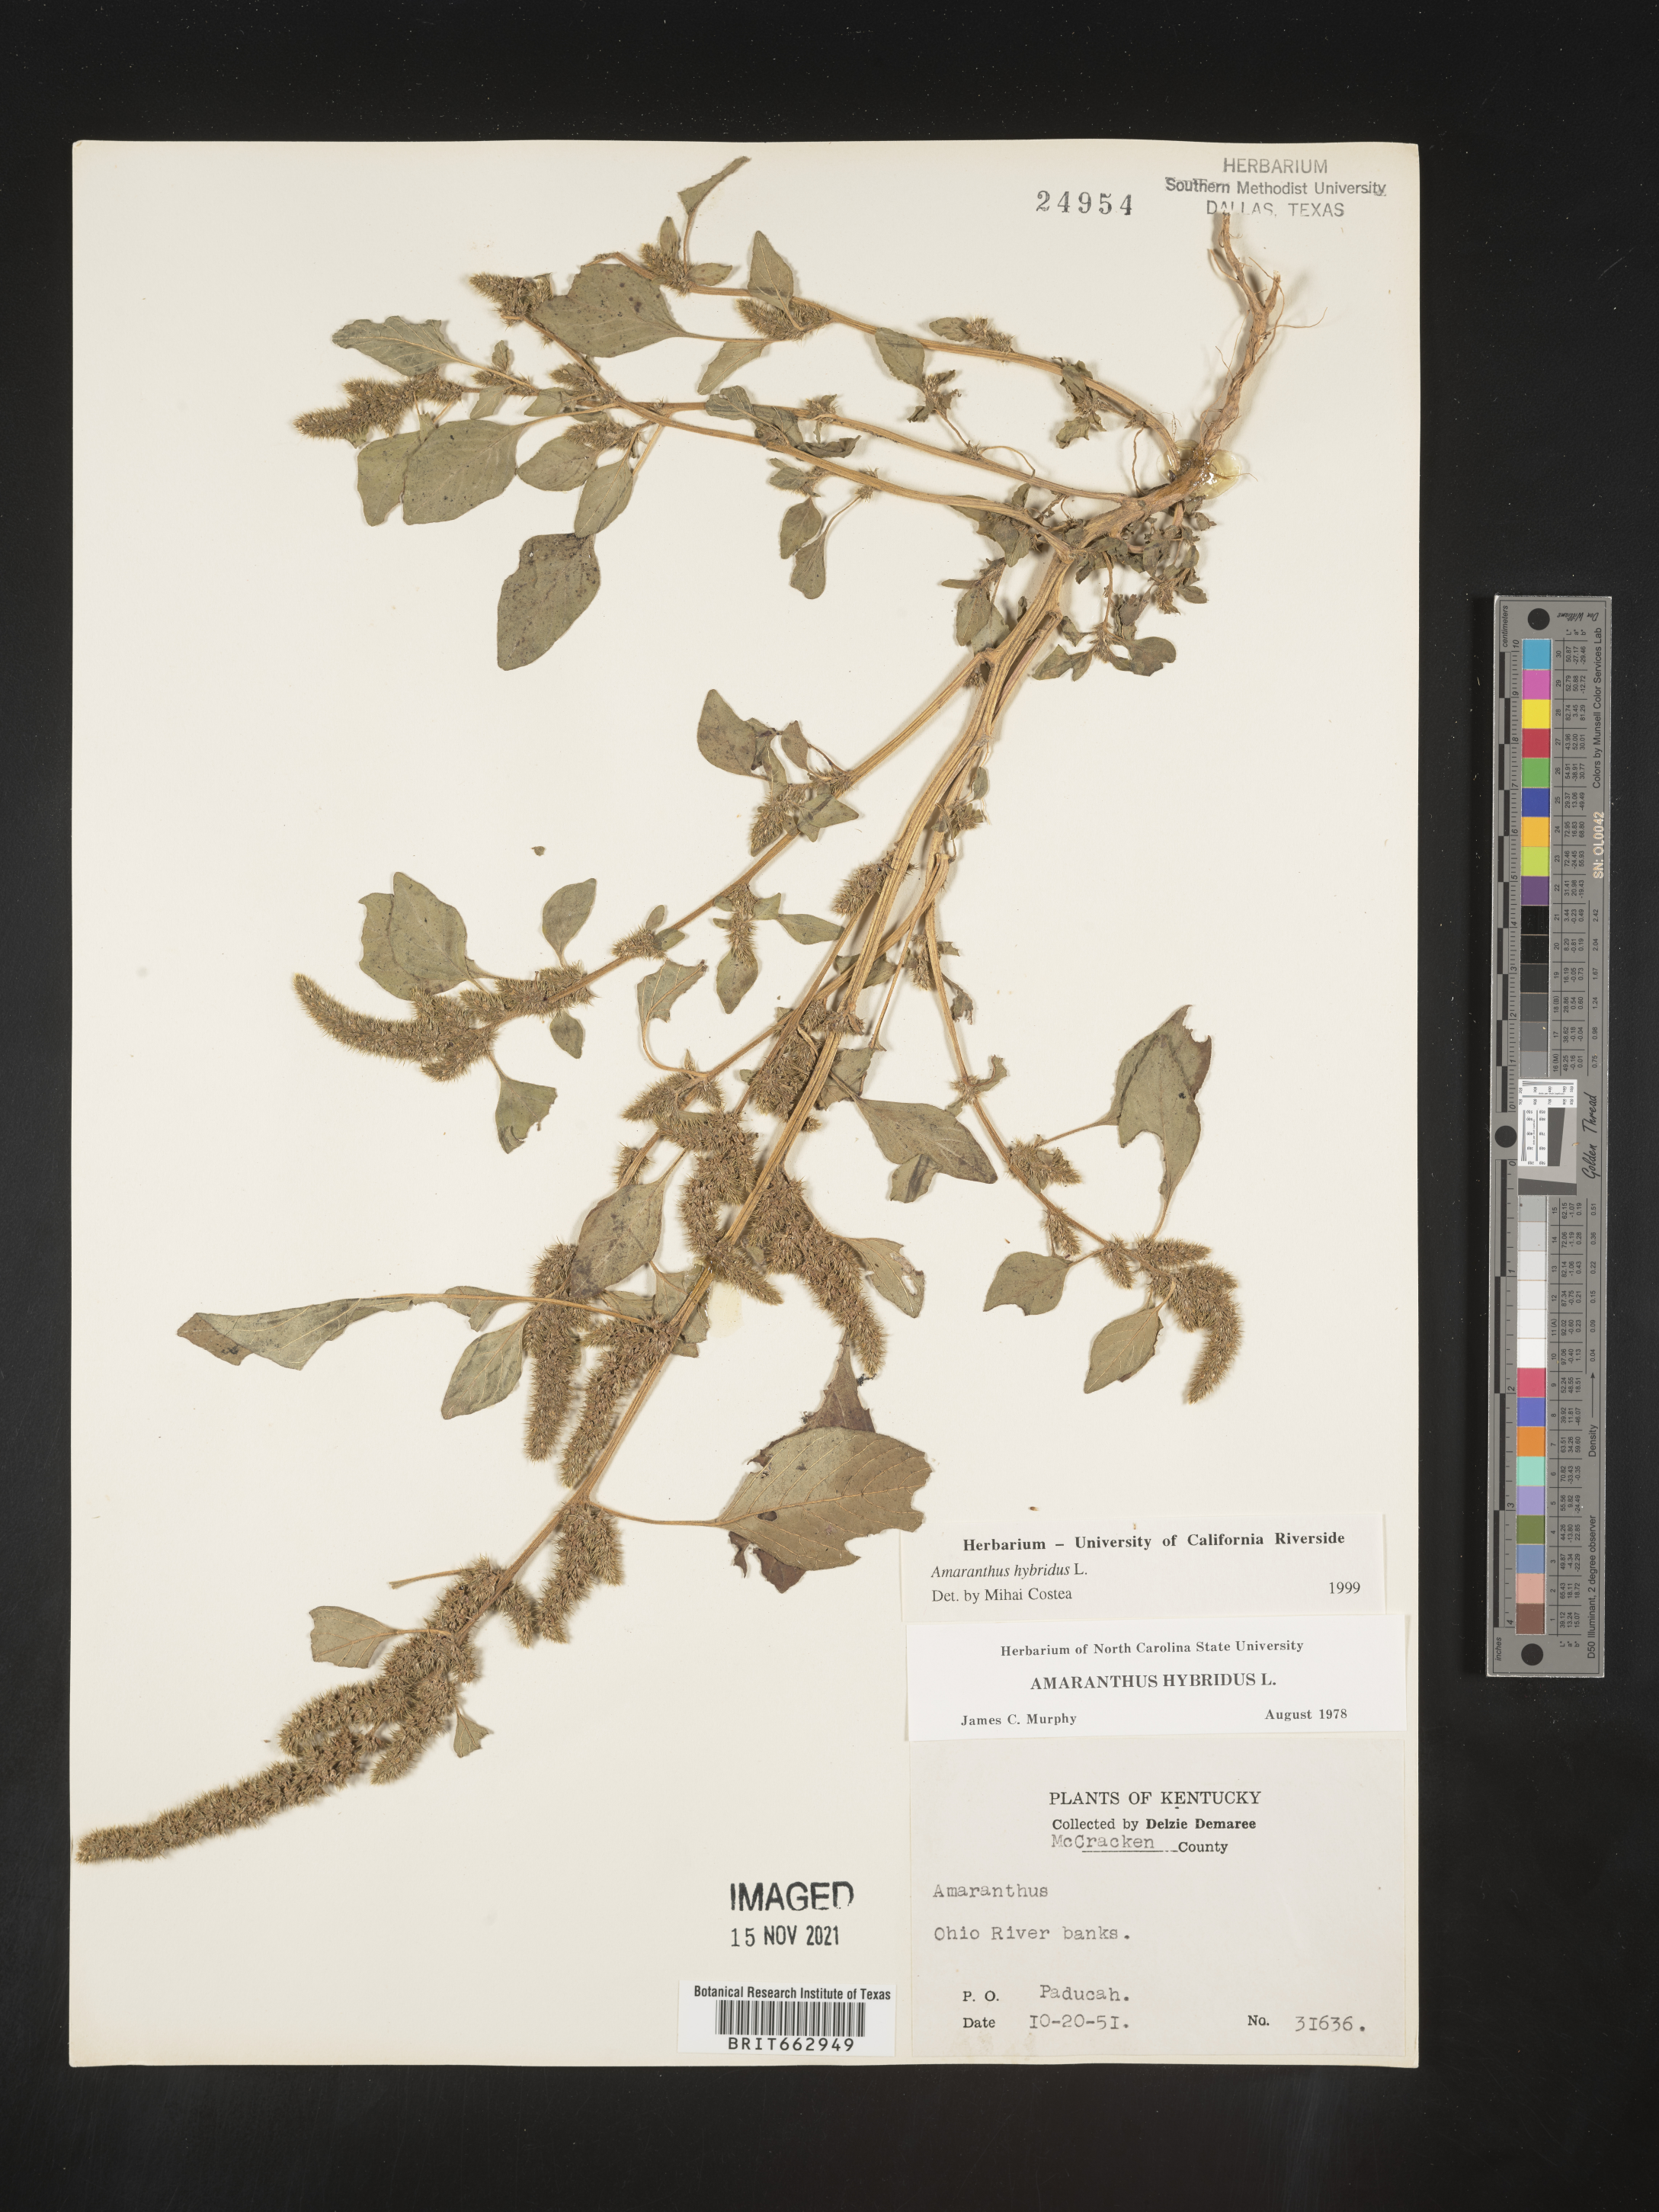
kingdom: Plantae
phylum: Tracheophyta
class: Magnoliopsida
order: Caryophyllales
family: Amaranthaceae
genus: Amaranthus
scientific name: Amaranthus hybridus
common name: Green amaranth
